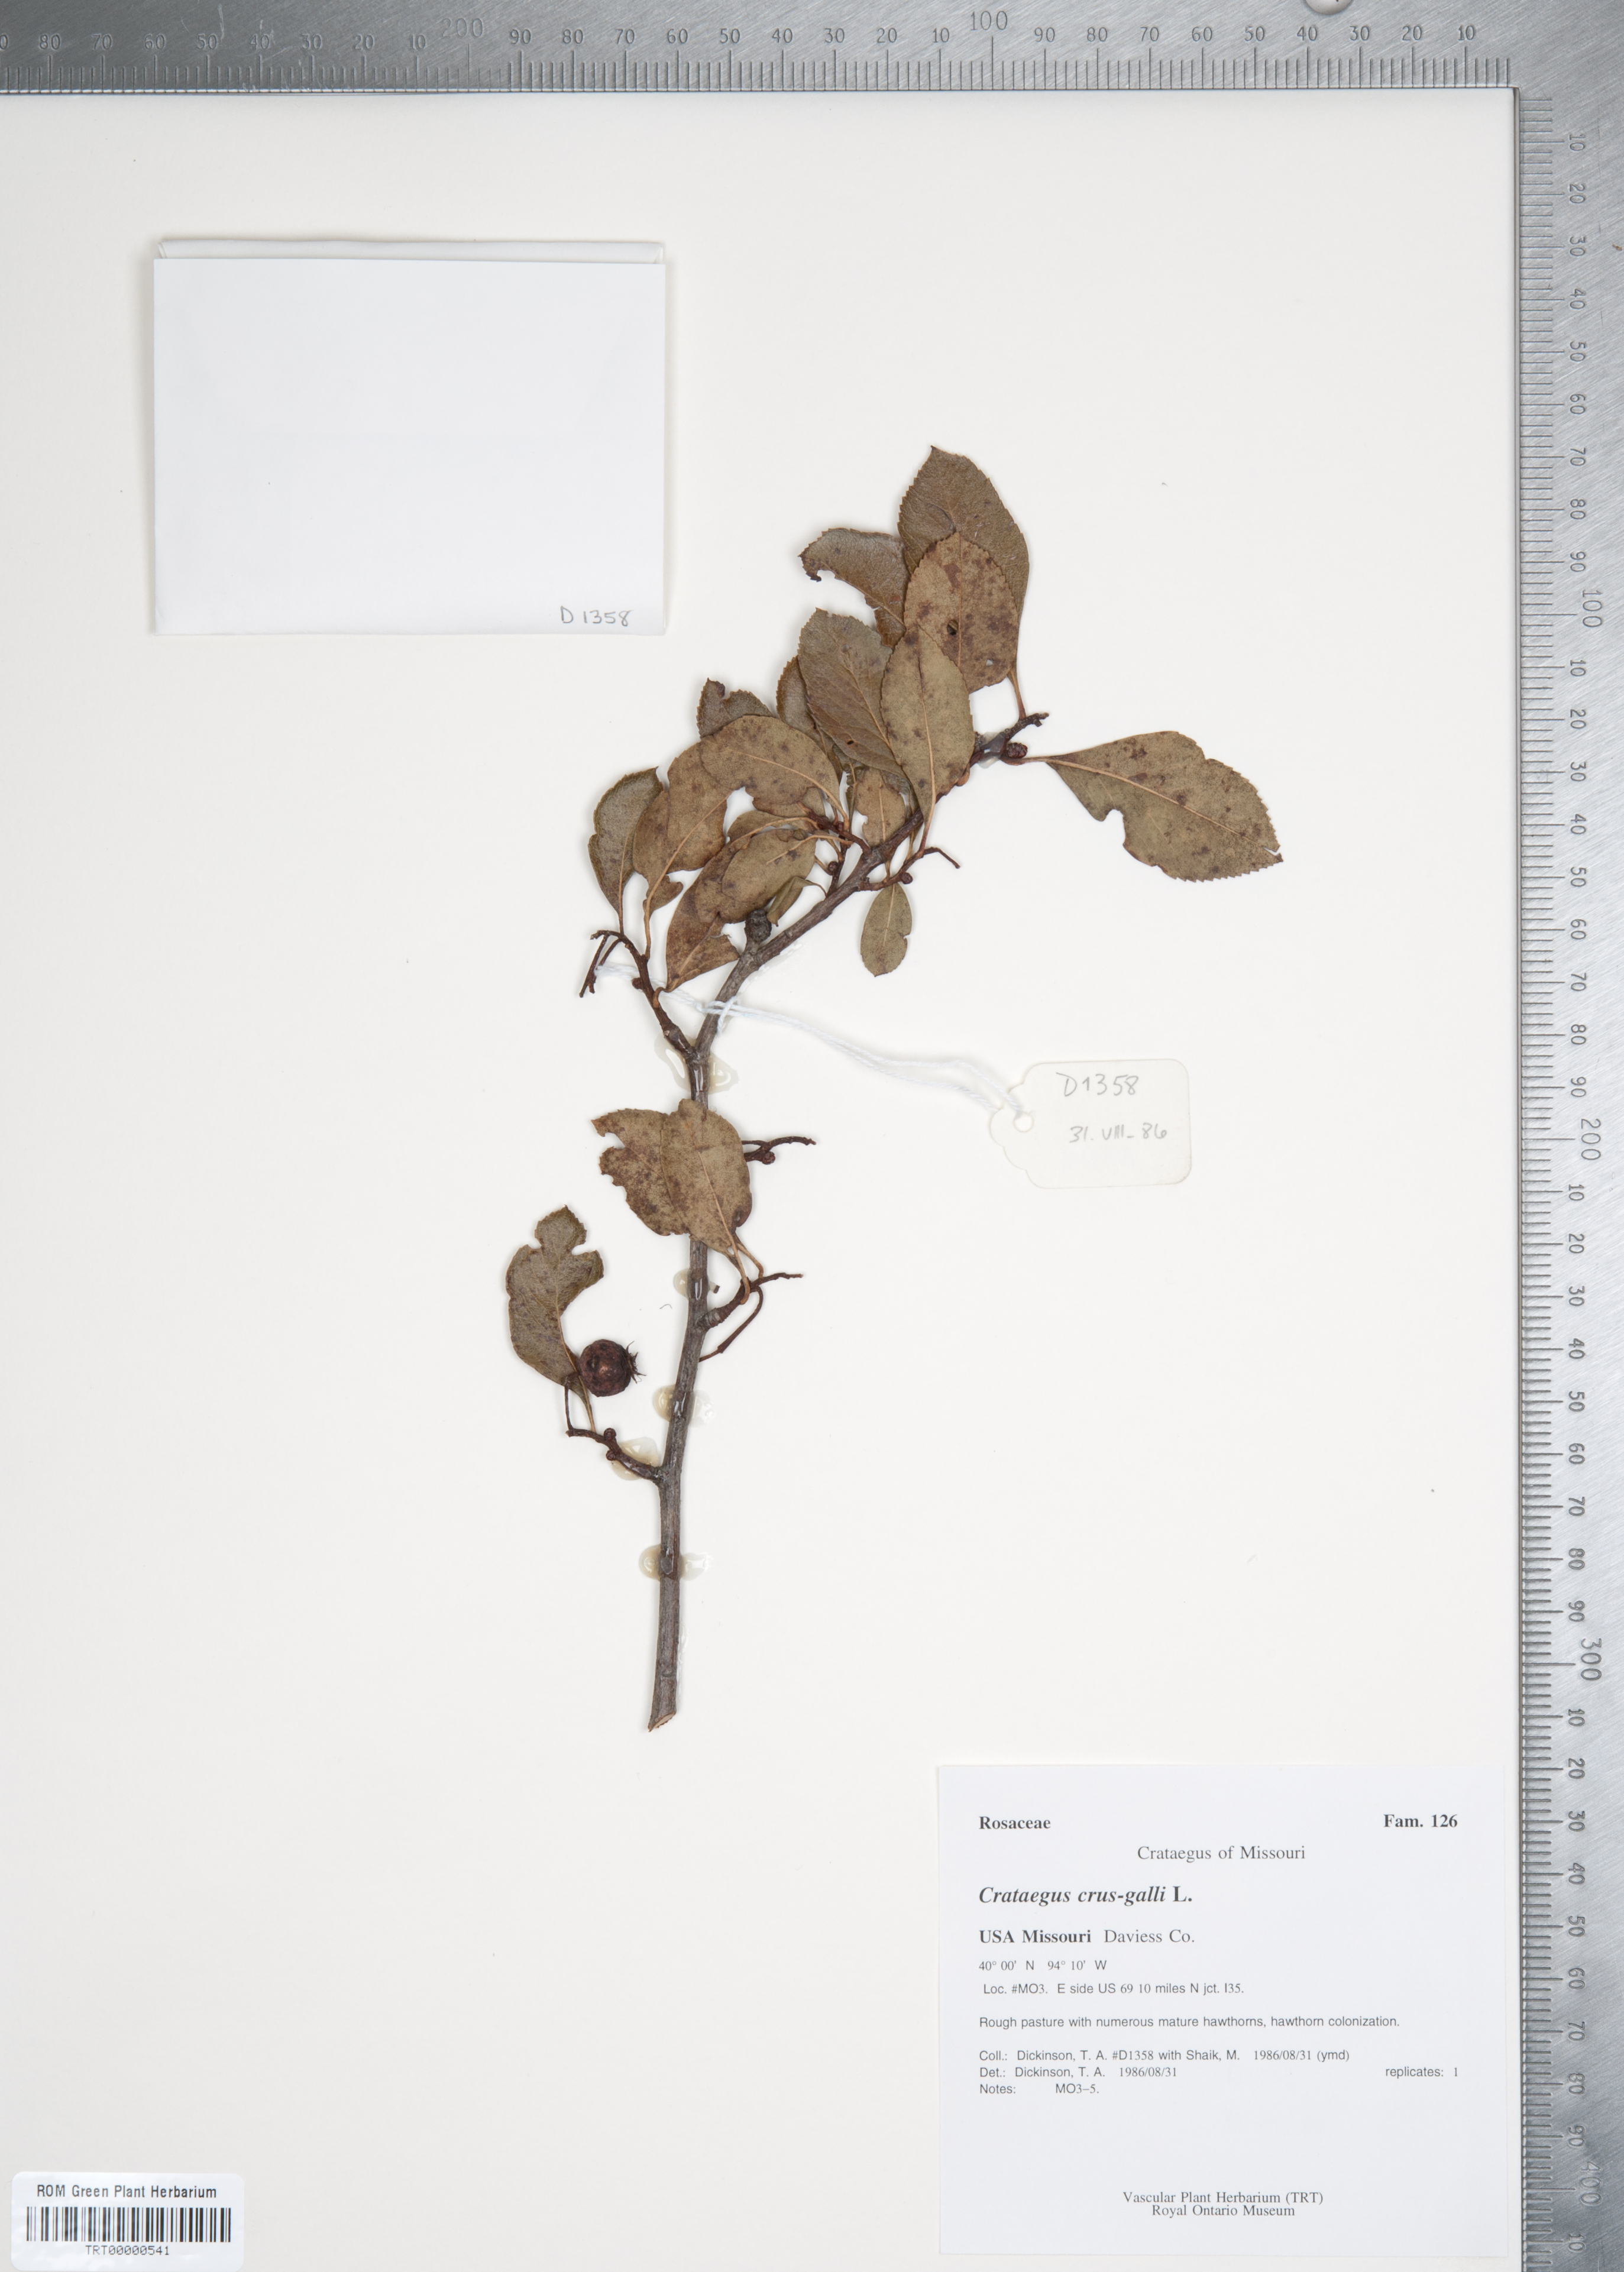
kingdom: Plantae
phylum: Tracheophyta
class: Magnoliopsida
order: Rosales
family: Rosaceae
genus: Crataegus
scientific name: Crataegus crus-galli
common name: Cockspurthorn
